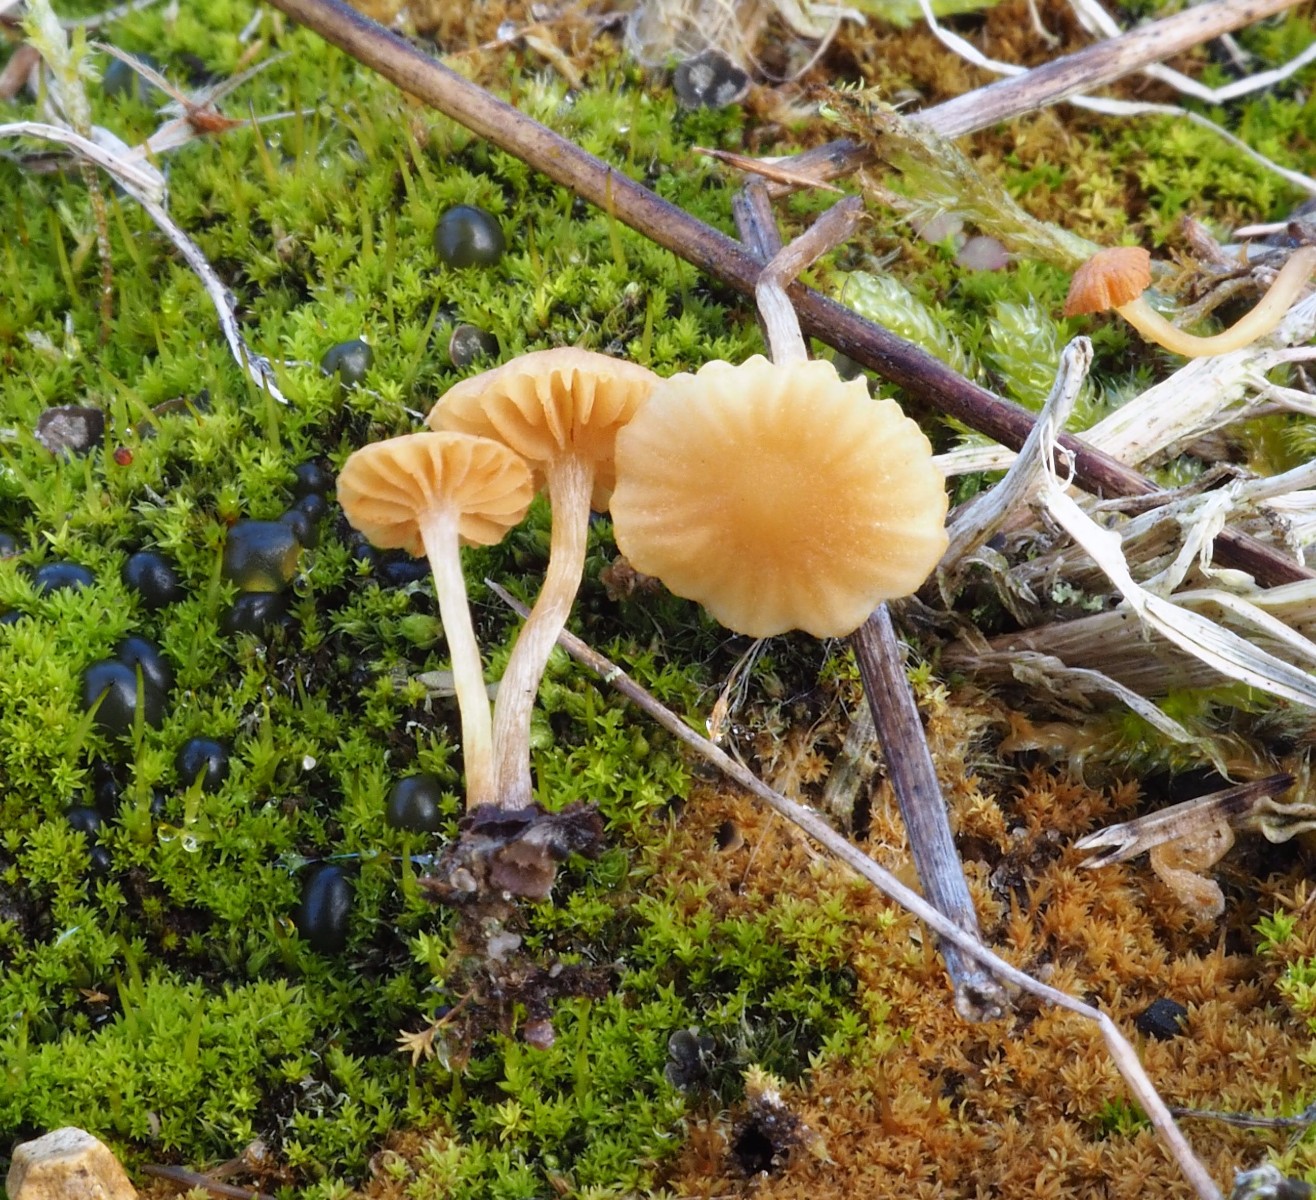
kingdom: Fungi
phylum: Basidiomycota
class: Agaricomycetes
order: Agaricales
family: Hymenogastraceae
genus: Galerina
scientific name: Galerina graminea
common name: plæne-hjelmhat
